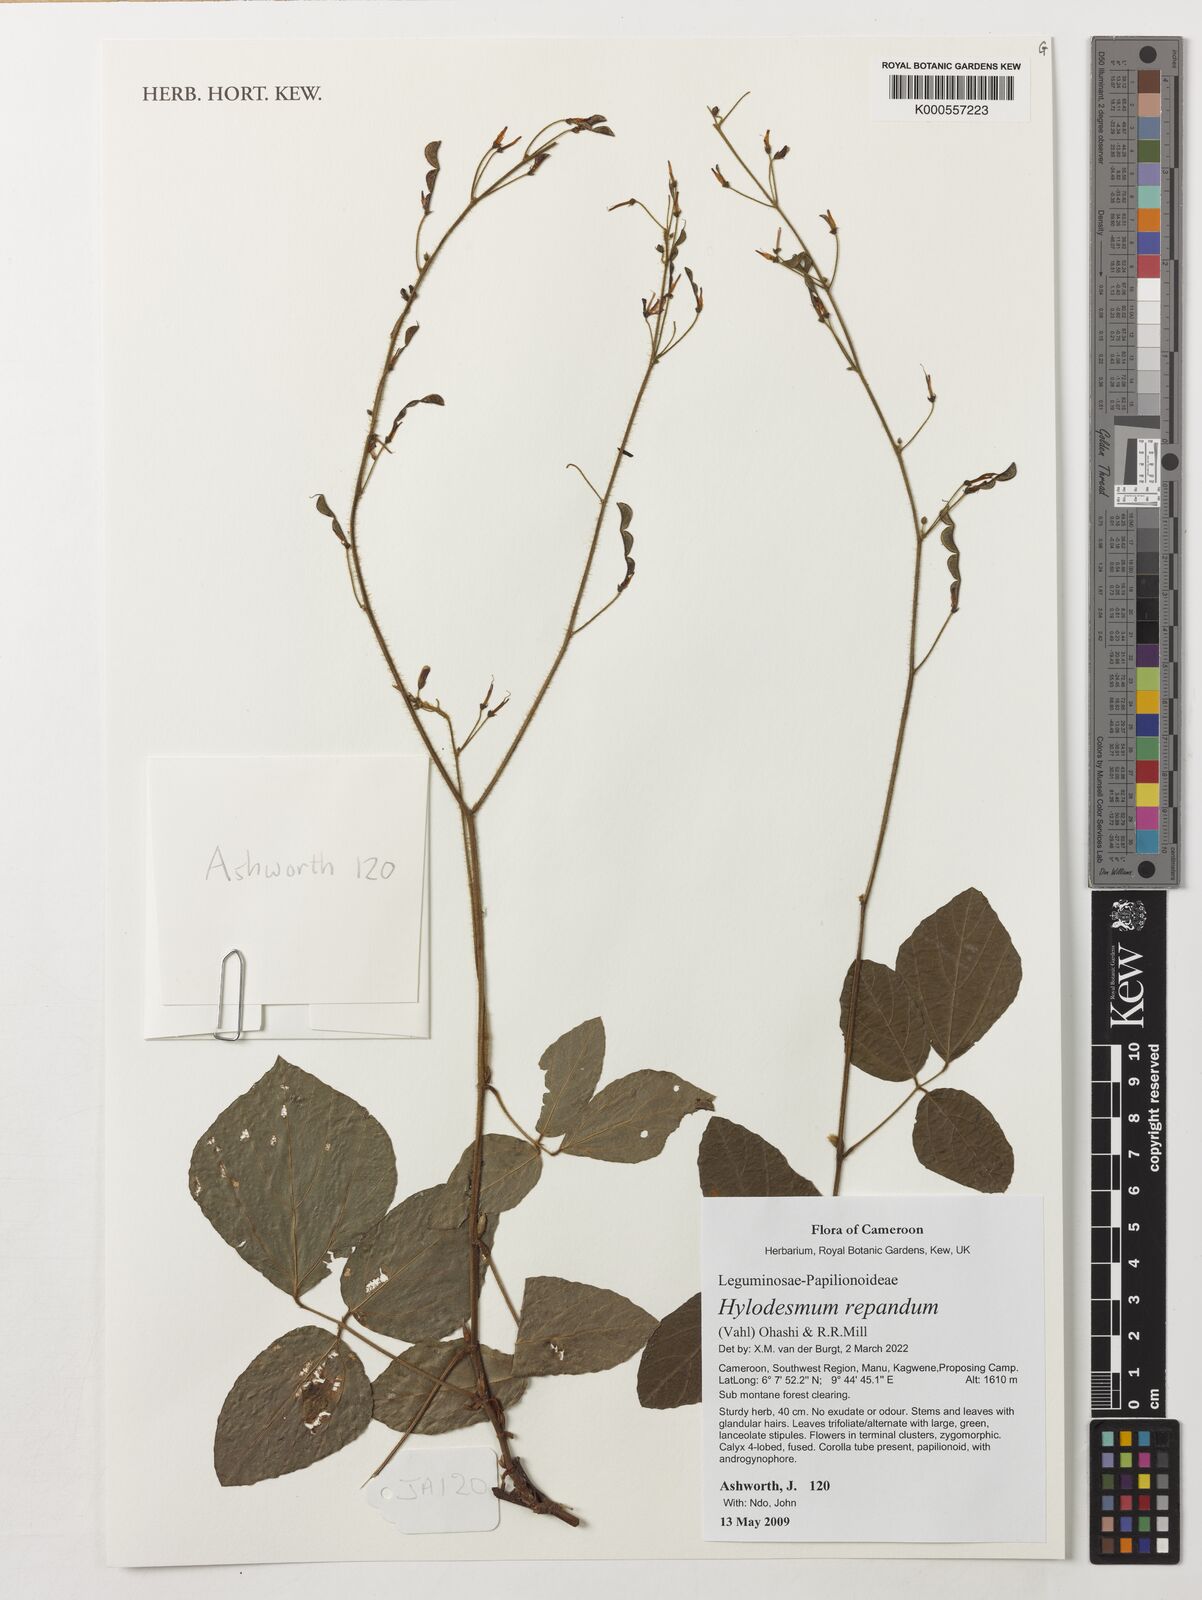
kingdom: Plantae
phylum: Tracheophyta
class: Magnoliopsida
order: Fabales
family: Fabaceae
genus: Hylodesmum
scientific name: Hylodesmum repandum
